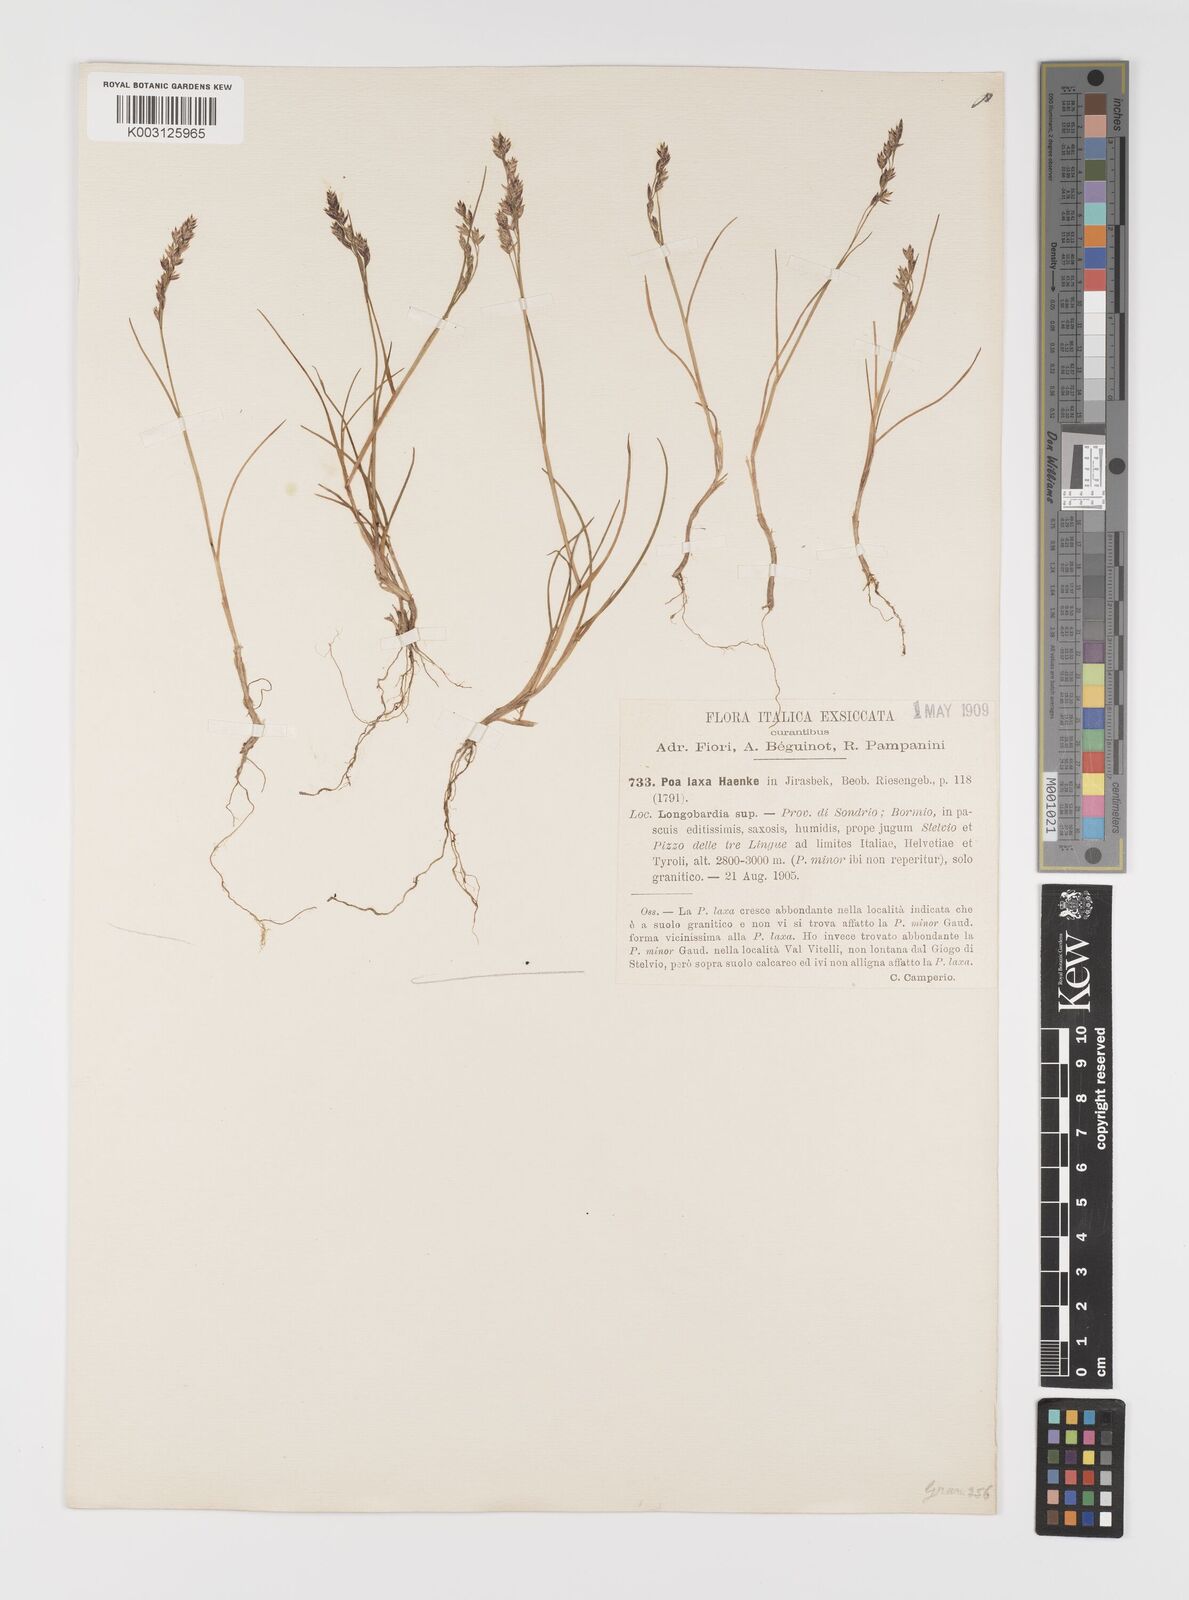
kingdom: Plantae
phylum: Tracheophyta
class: Liliopsida
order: Poales
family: Poaceae
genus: Poa
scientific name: Poa laxa
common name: Lax bluegrass
